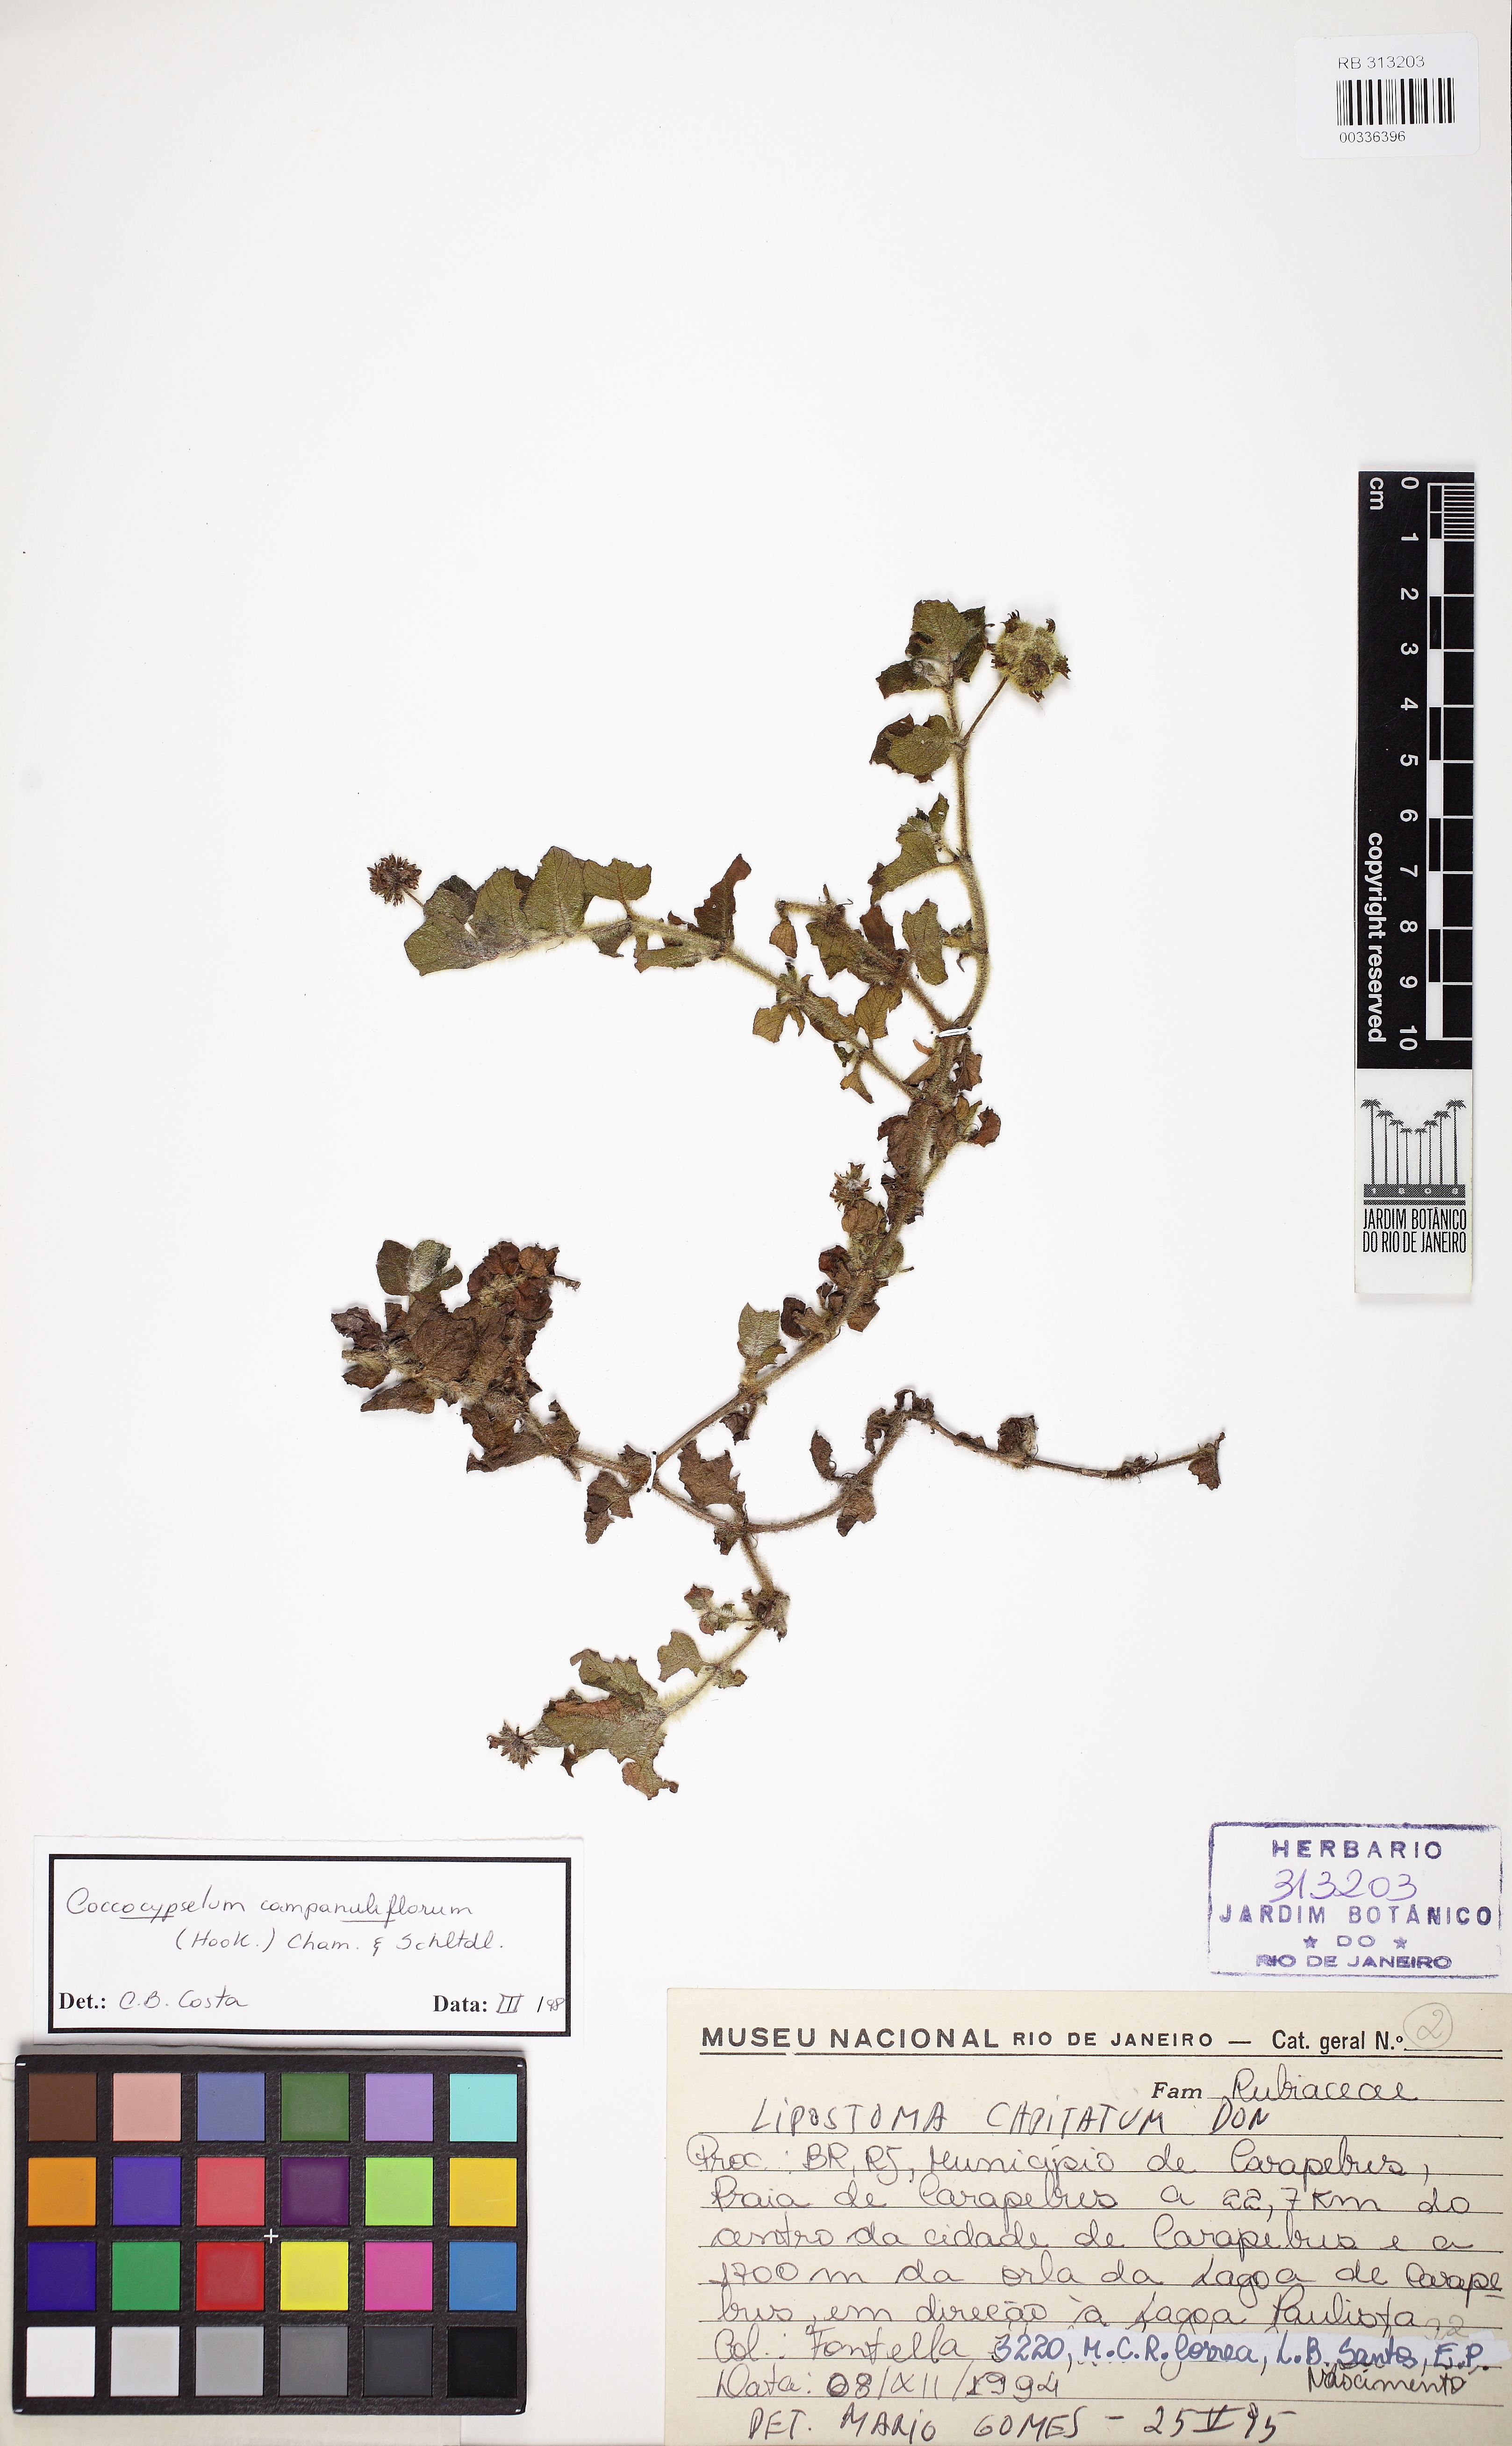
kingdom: Plantae
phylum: Tracheophyta
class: Magnoliopsida
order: Gentianales
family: Rubiaceae
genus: Coccocypselum
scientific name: Coccocypselum capitatum
